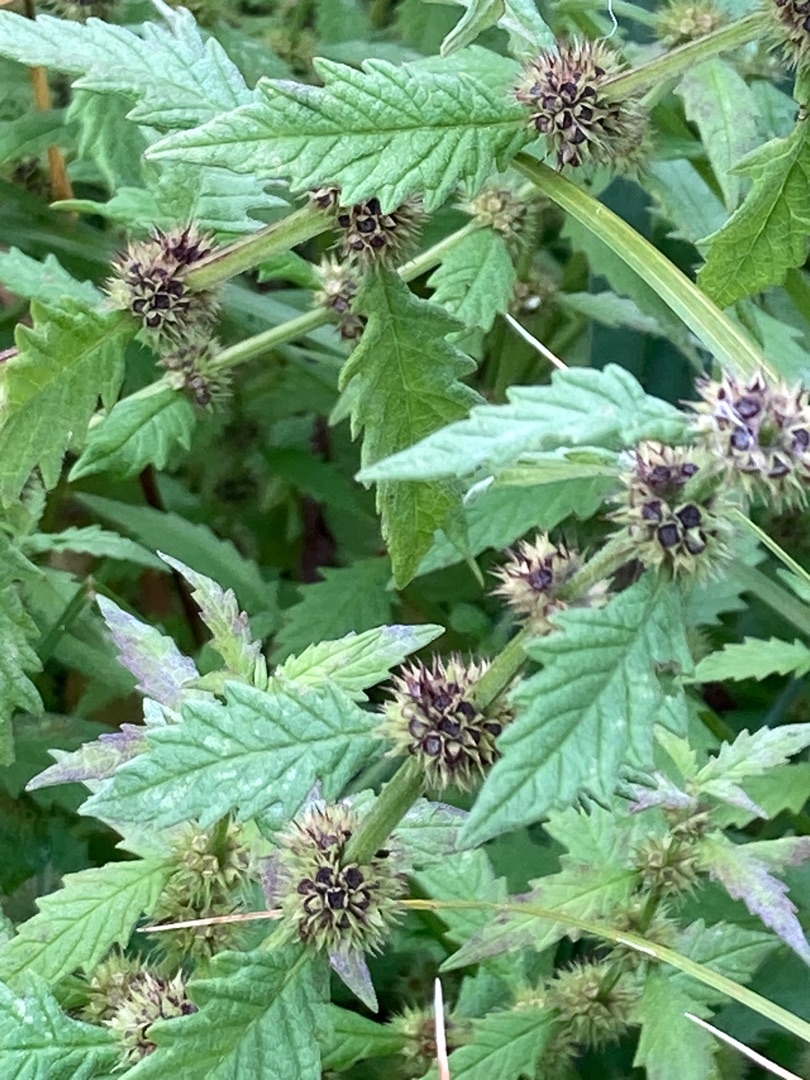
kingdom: Plantae
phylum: Tracheophyta
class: Magnoliopsida
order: Lamiales
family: Lamiaceae
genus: Lycopus
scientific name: Lycopus europaeus
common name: Sværtevæld
